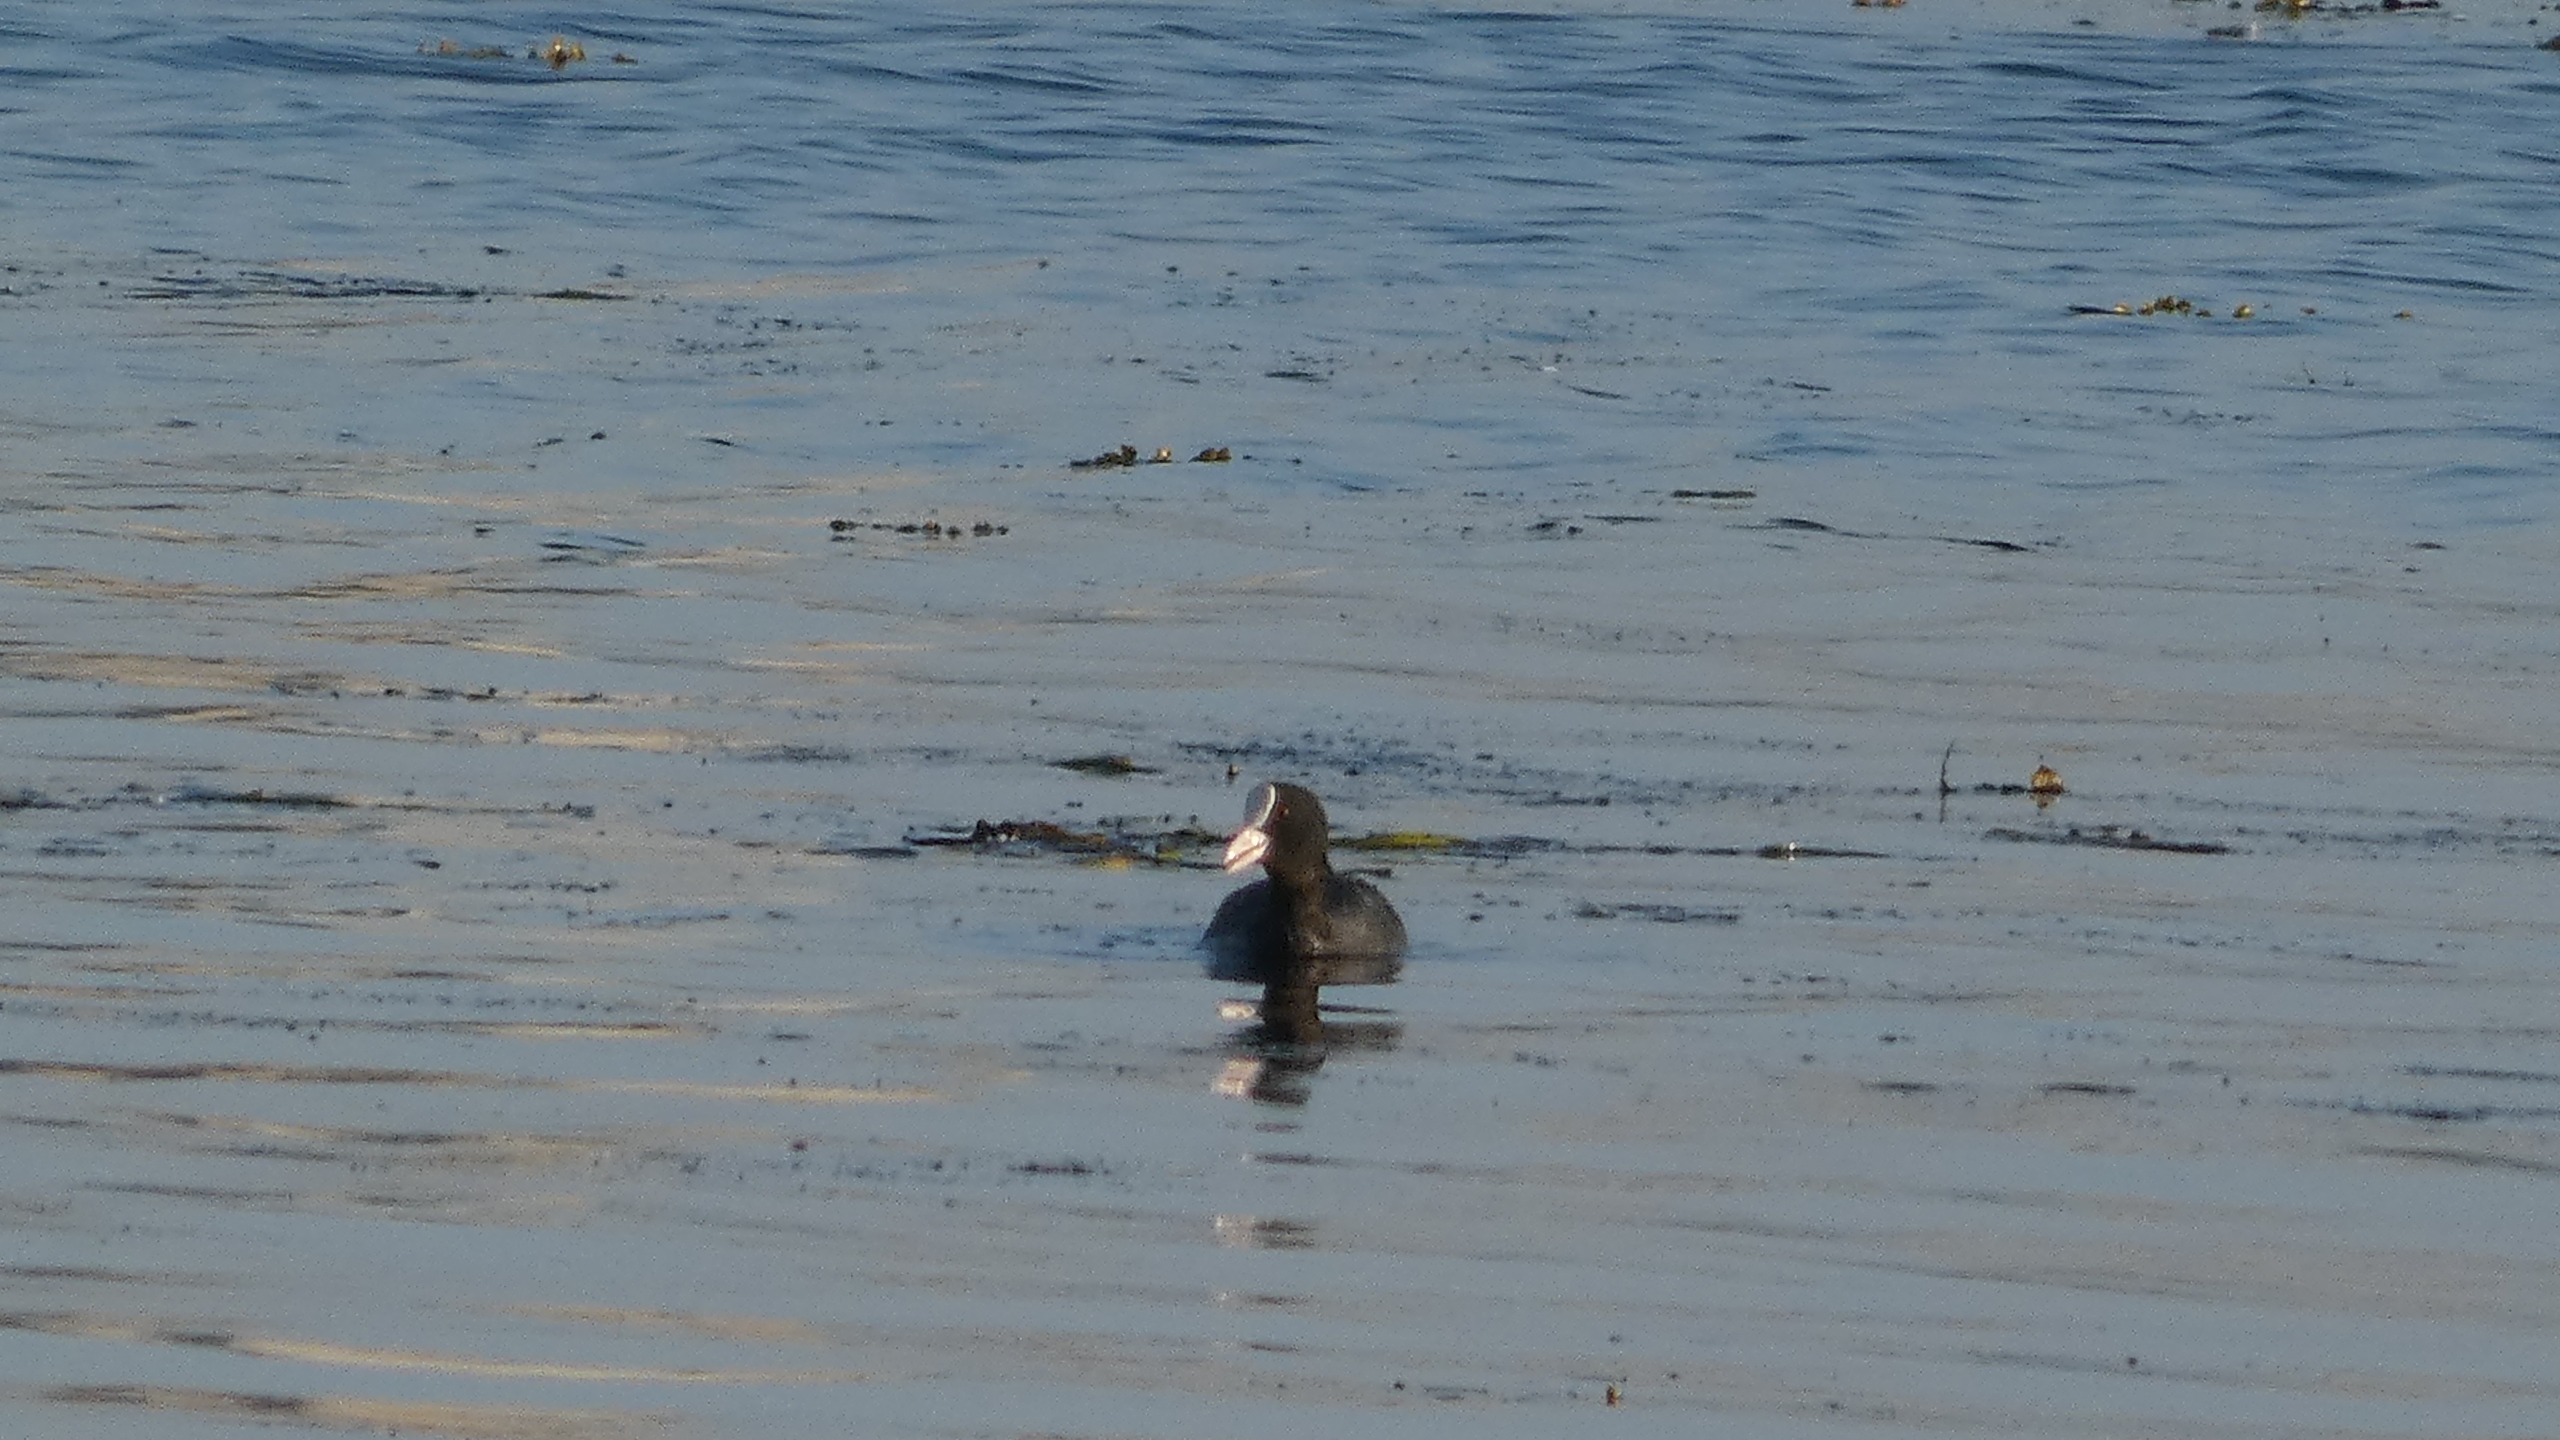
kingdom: Animalia
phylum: Chordata
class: Aves
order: Gruiformes
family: Rallidae
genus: Fulica
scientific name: Fulica atra
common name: Blishøne
